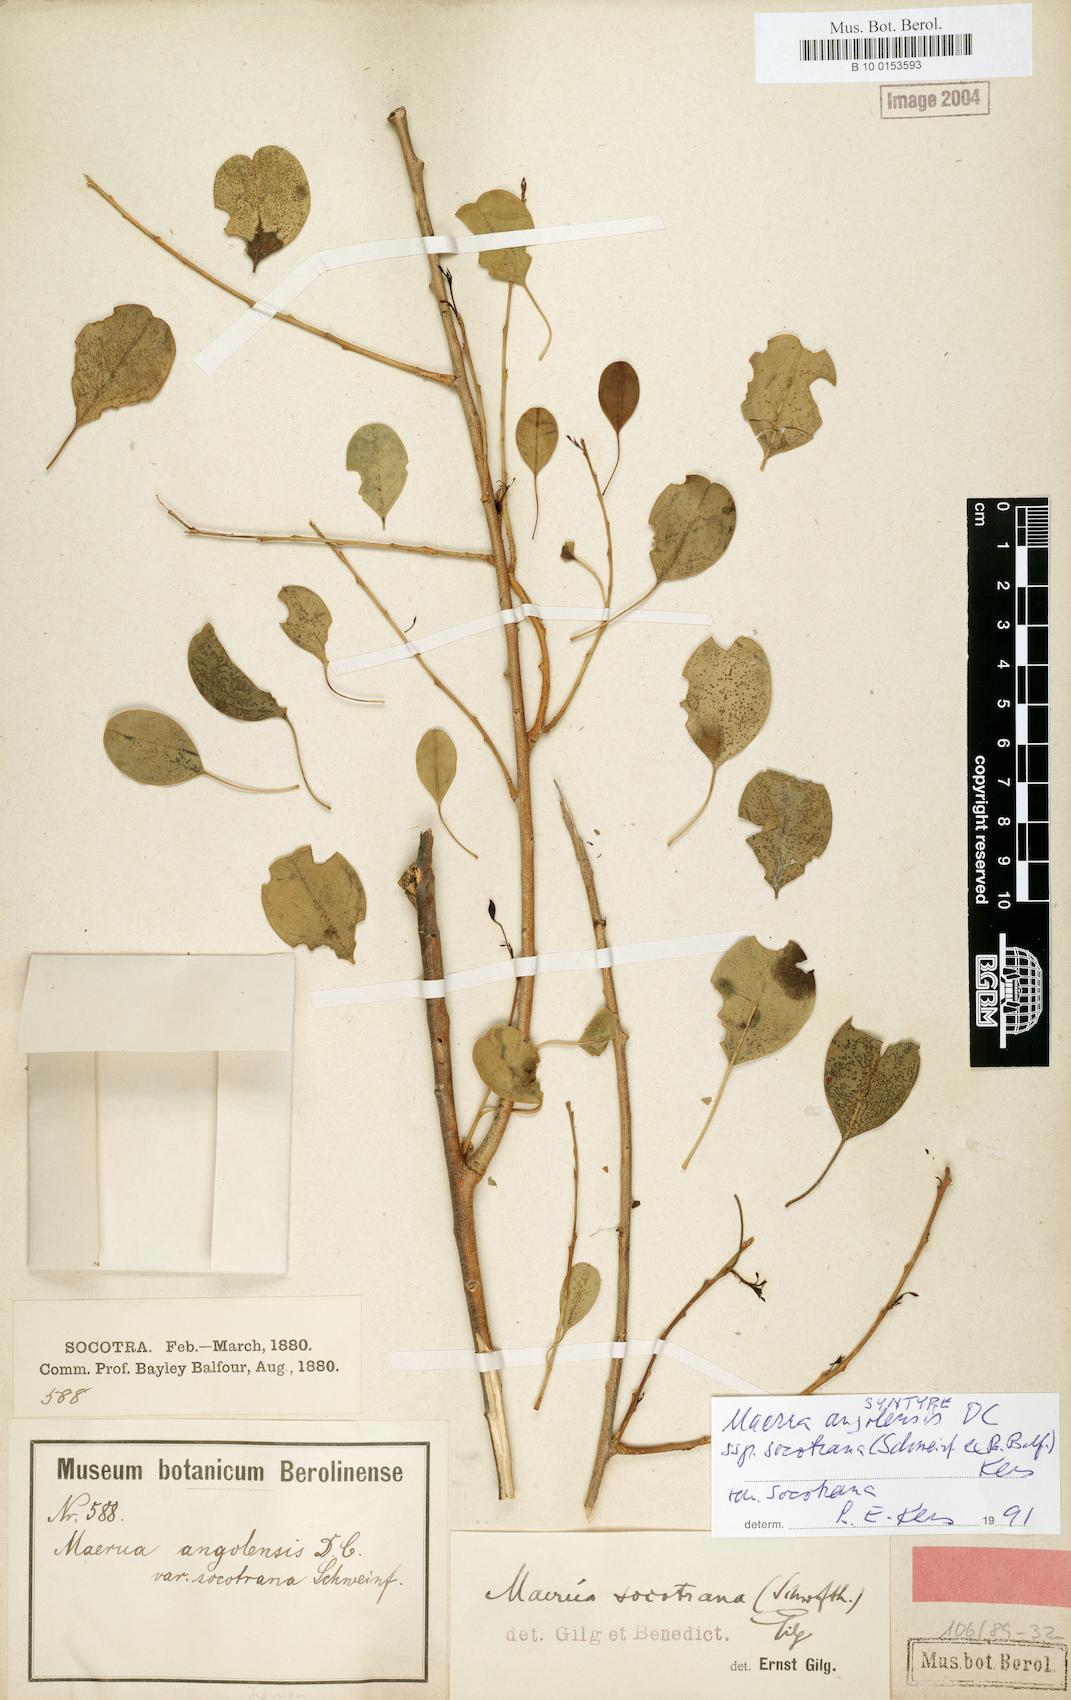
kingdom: Plantae
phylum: Tracheophyta
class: Magnoliopsida
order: Brassicales
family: Capparaceae
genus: Maerua
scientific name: Maerua angolensis
